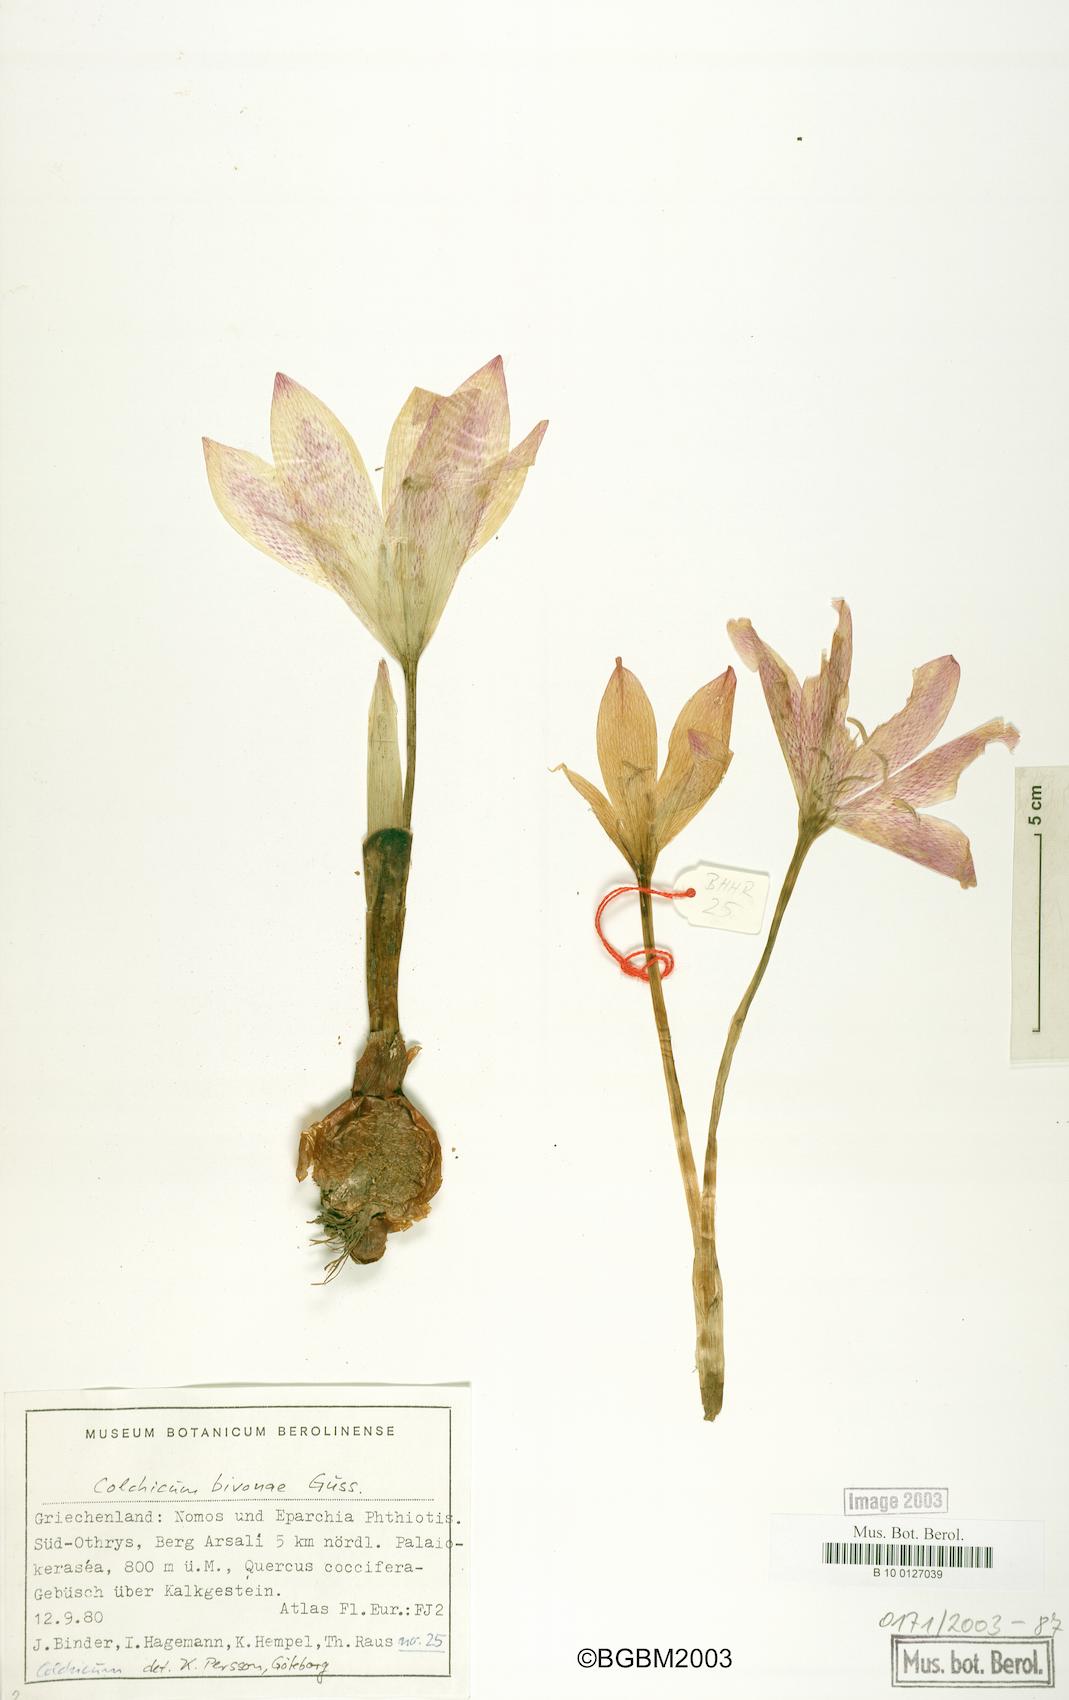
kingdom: Plantae
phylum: Tracheophyta
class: Liliopsida
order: Liliales
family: Colchicaceae
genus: Colchicum
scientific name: Colchicum bivonae
